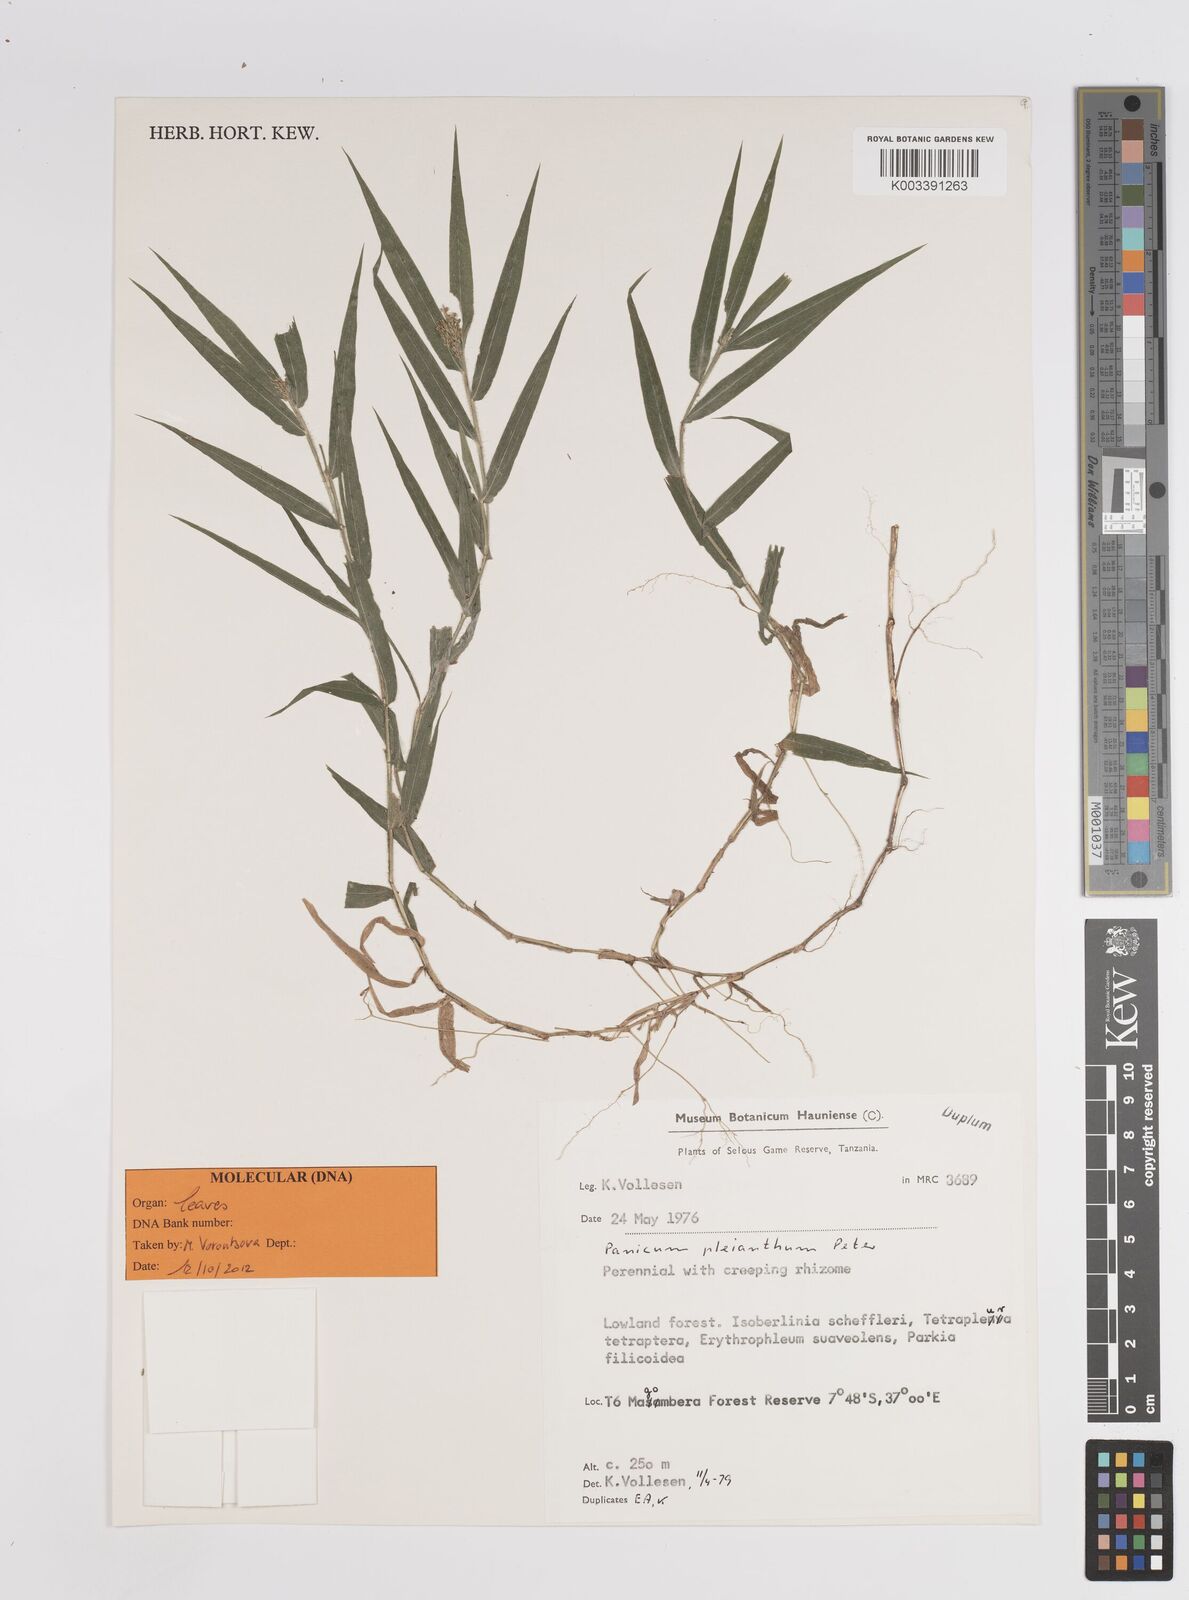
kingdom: Plantae
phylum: Tracheophyta
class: Liliopsida
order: Poales
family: Poaceae
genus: Panicum
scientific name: Panicum pleianthum
